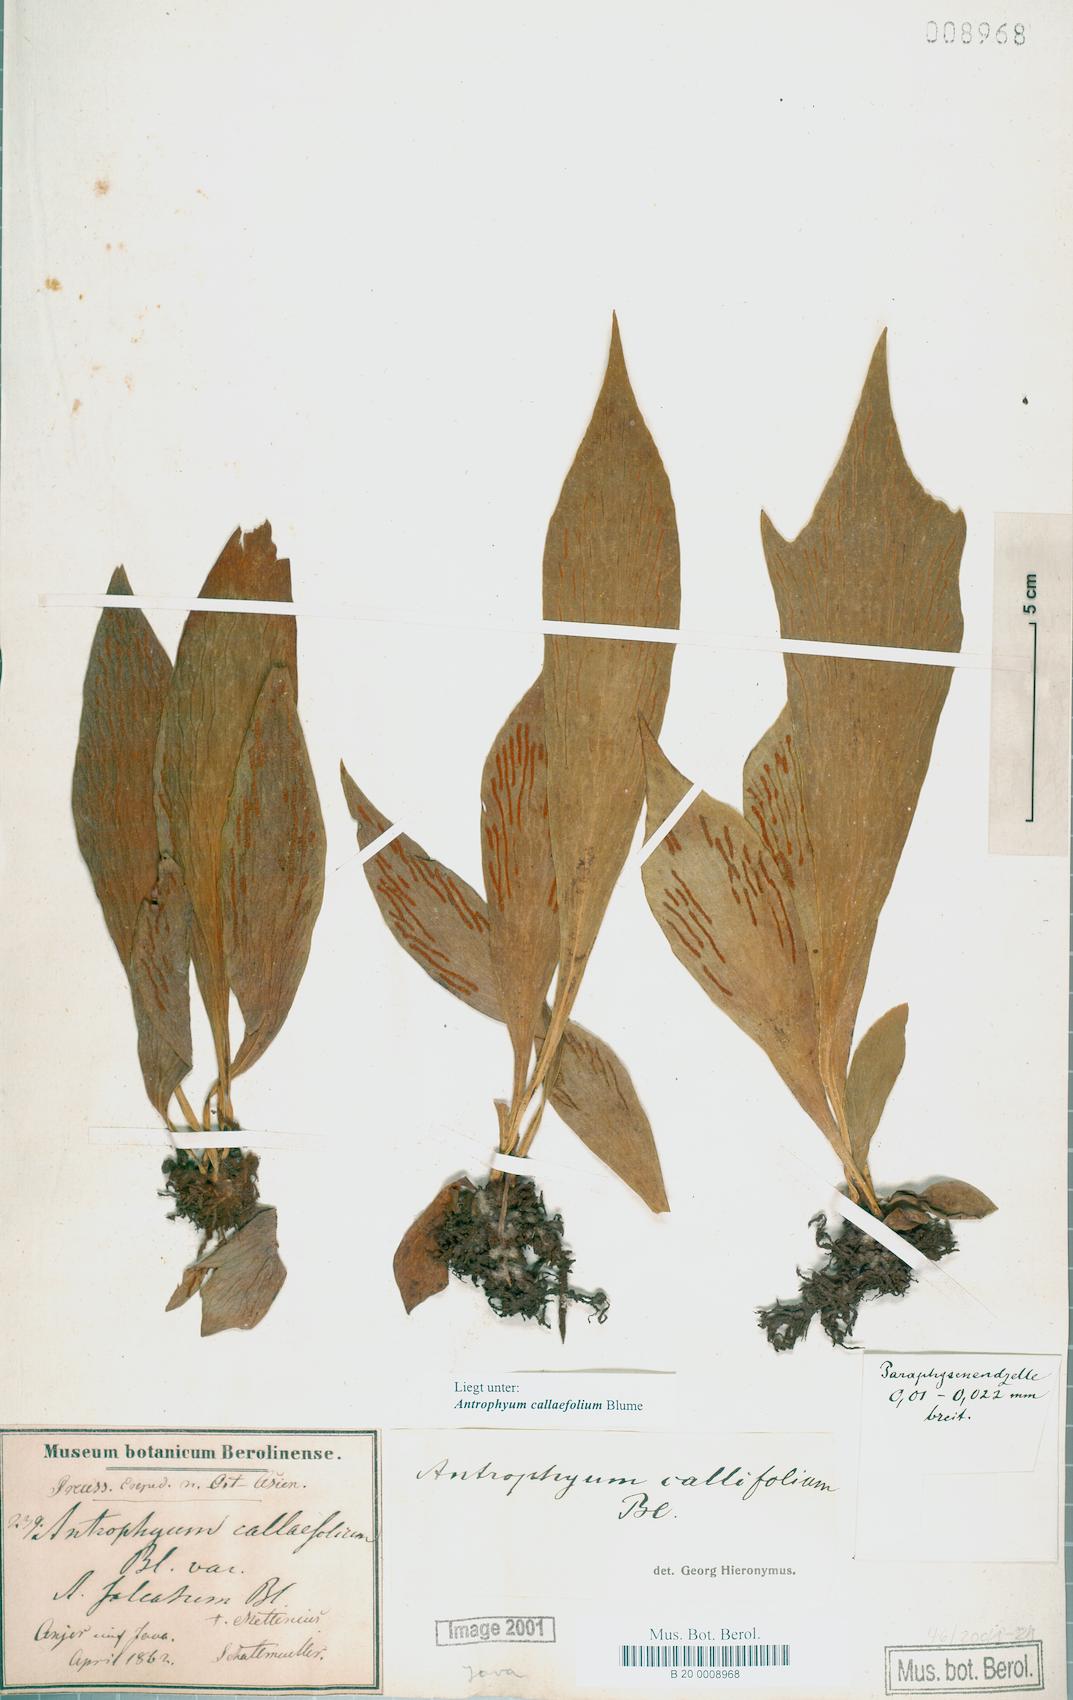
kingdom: Plantae
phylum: Tracheophyta
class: Polypodiopsida
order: Polypodiales
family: Pteridaceae
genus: Antrophyum
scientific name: Antrophyum callifolium
